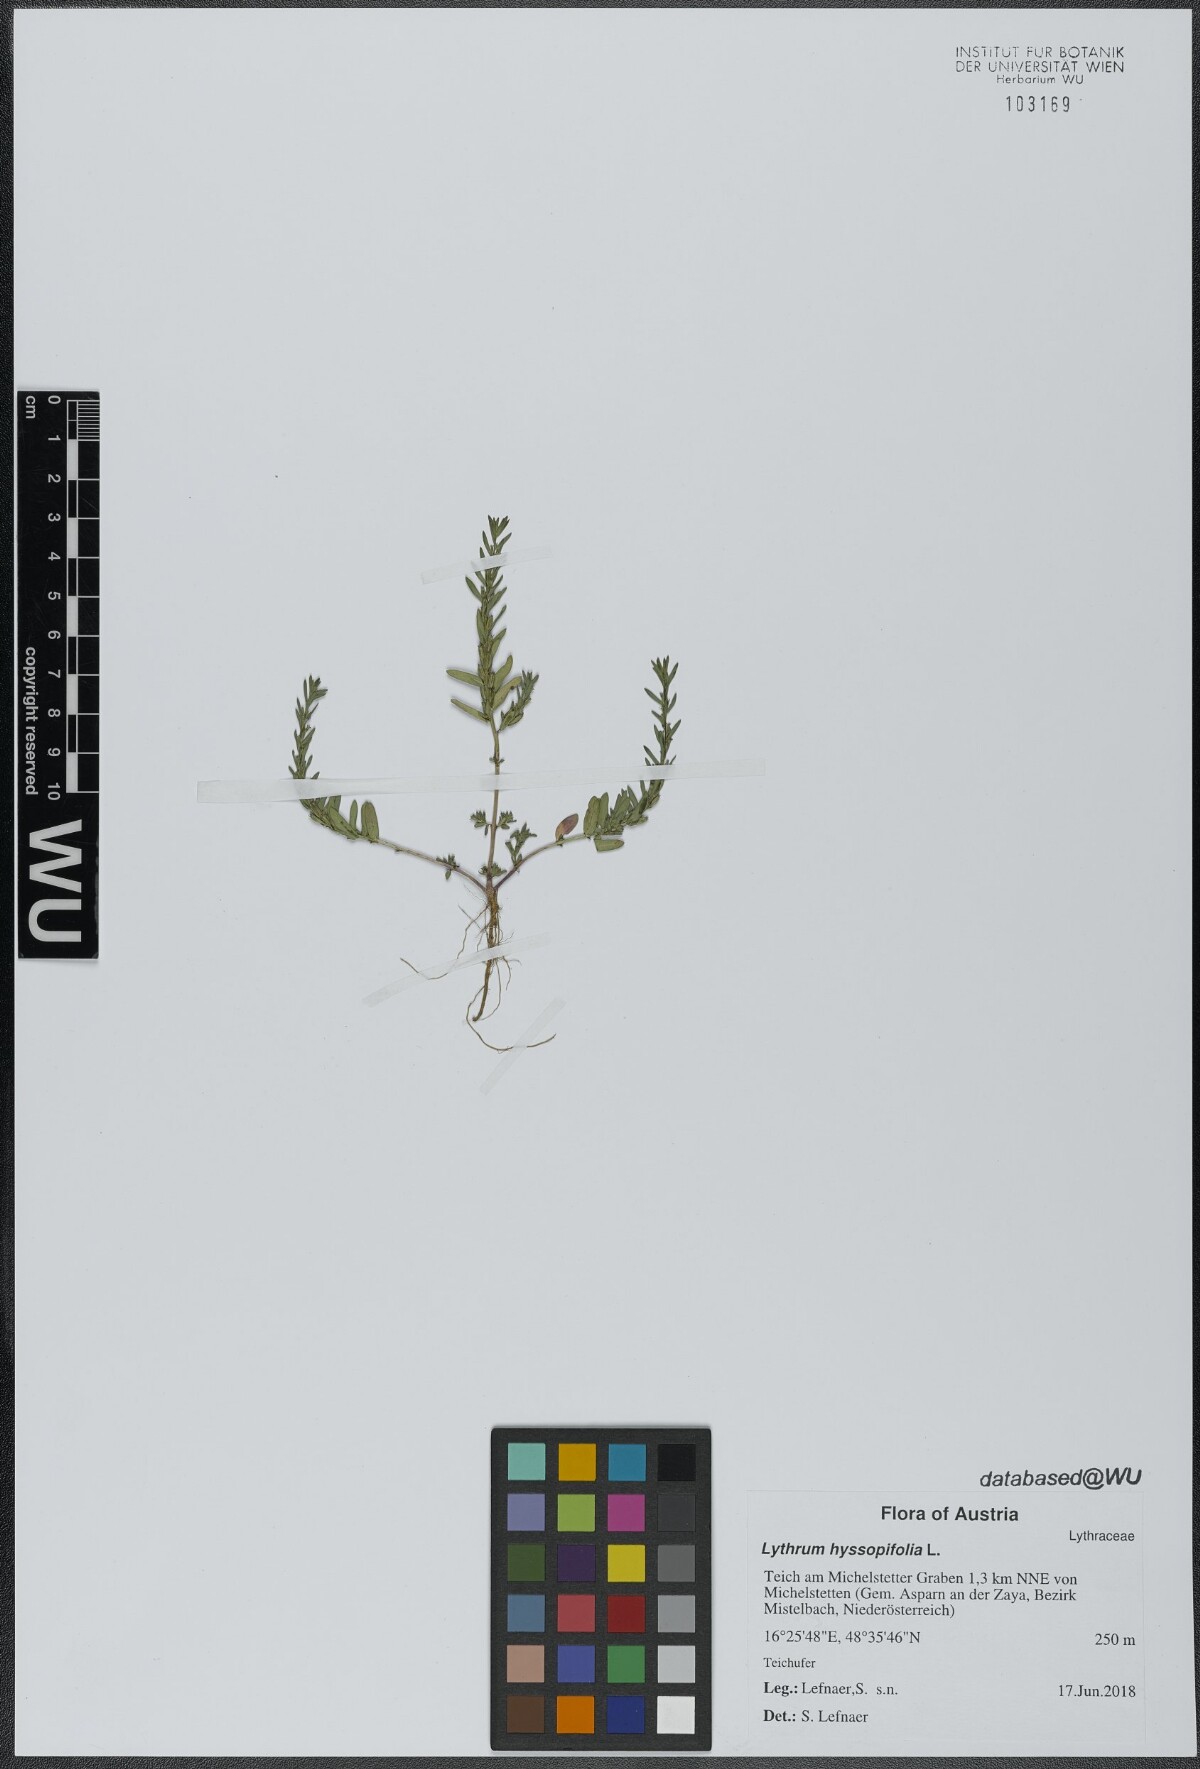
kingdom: Plantae
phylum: Tracheophyta
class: Magnoliopsida
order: Myrtales
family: Lythraceae
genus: Lythrum
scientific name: Lythrum hyssopifolia
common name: Grass-poly
